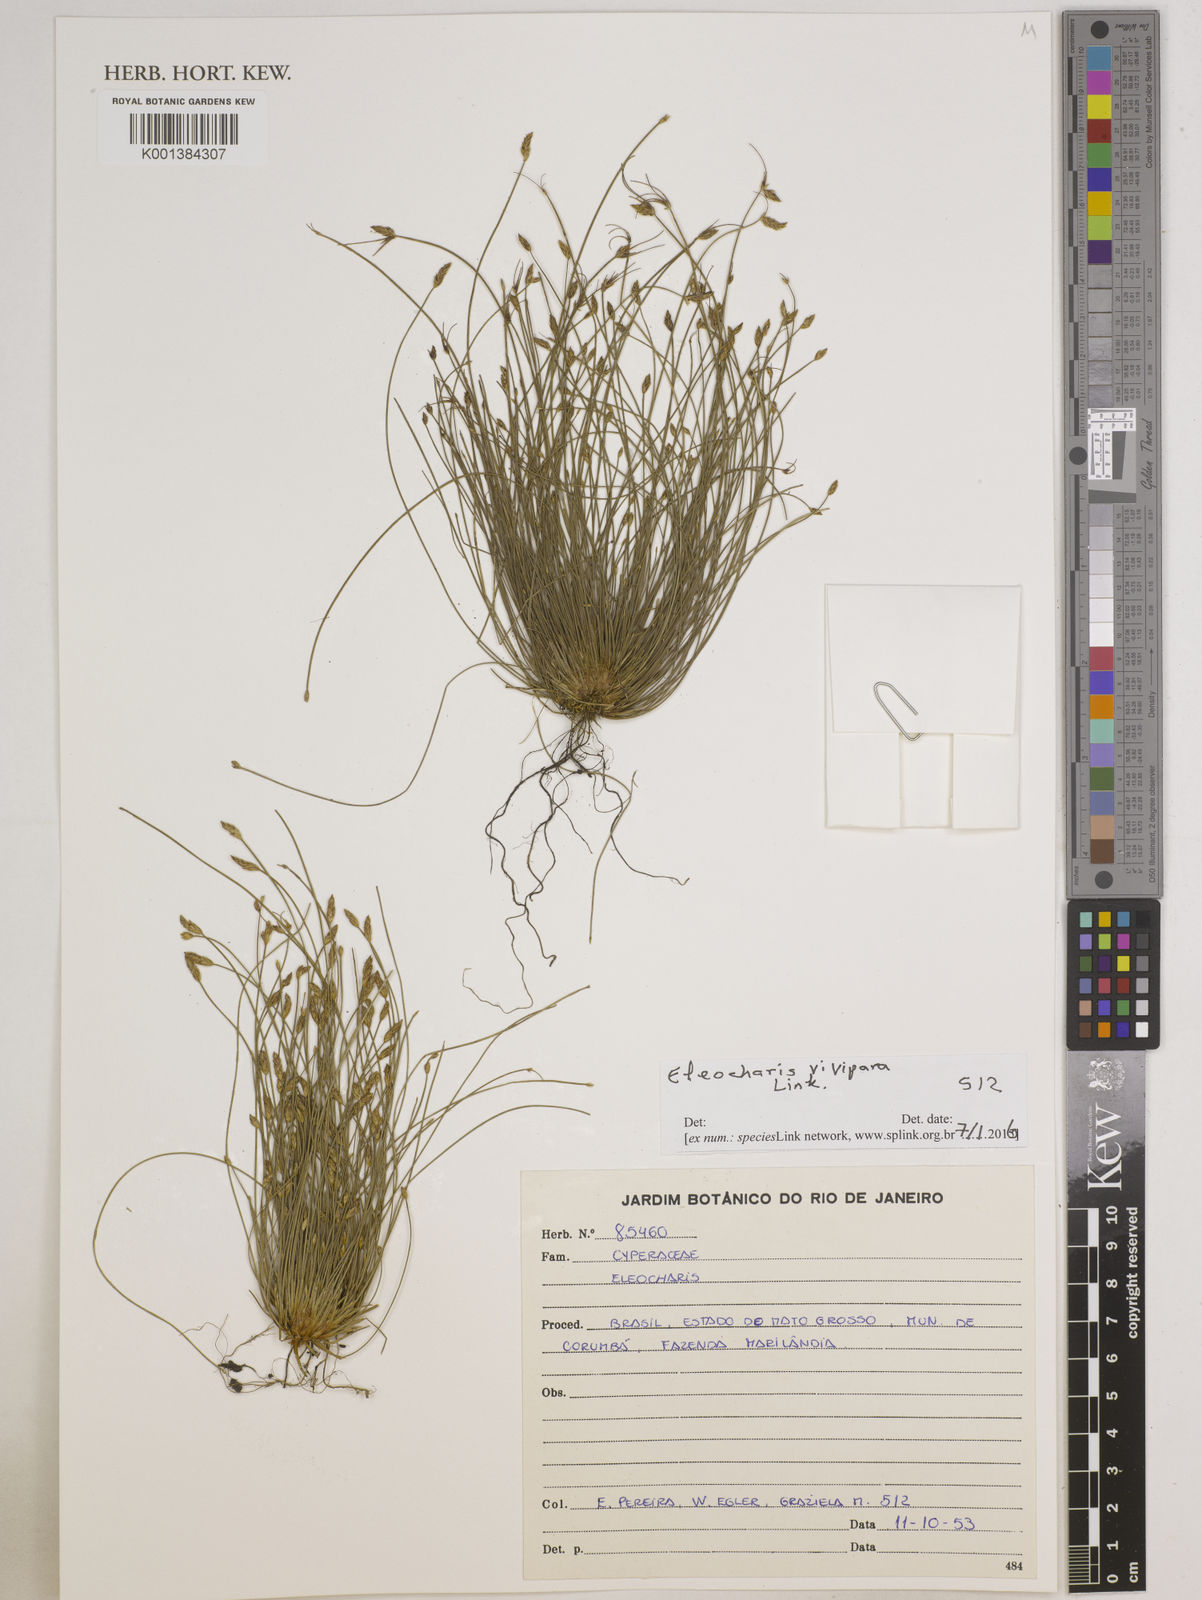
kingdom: Plantae
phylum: Tracheophyta
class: Liliopsida
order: Poales
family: Cyperaceae
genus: Eleocharis
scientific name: Eleocharis vivipara
